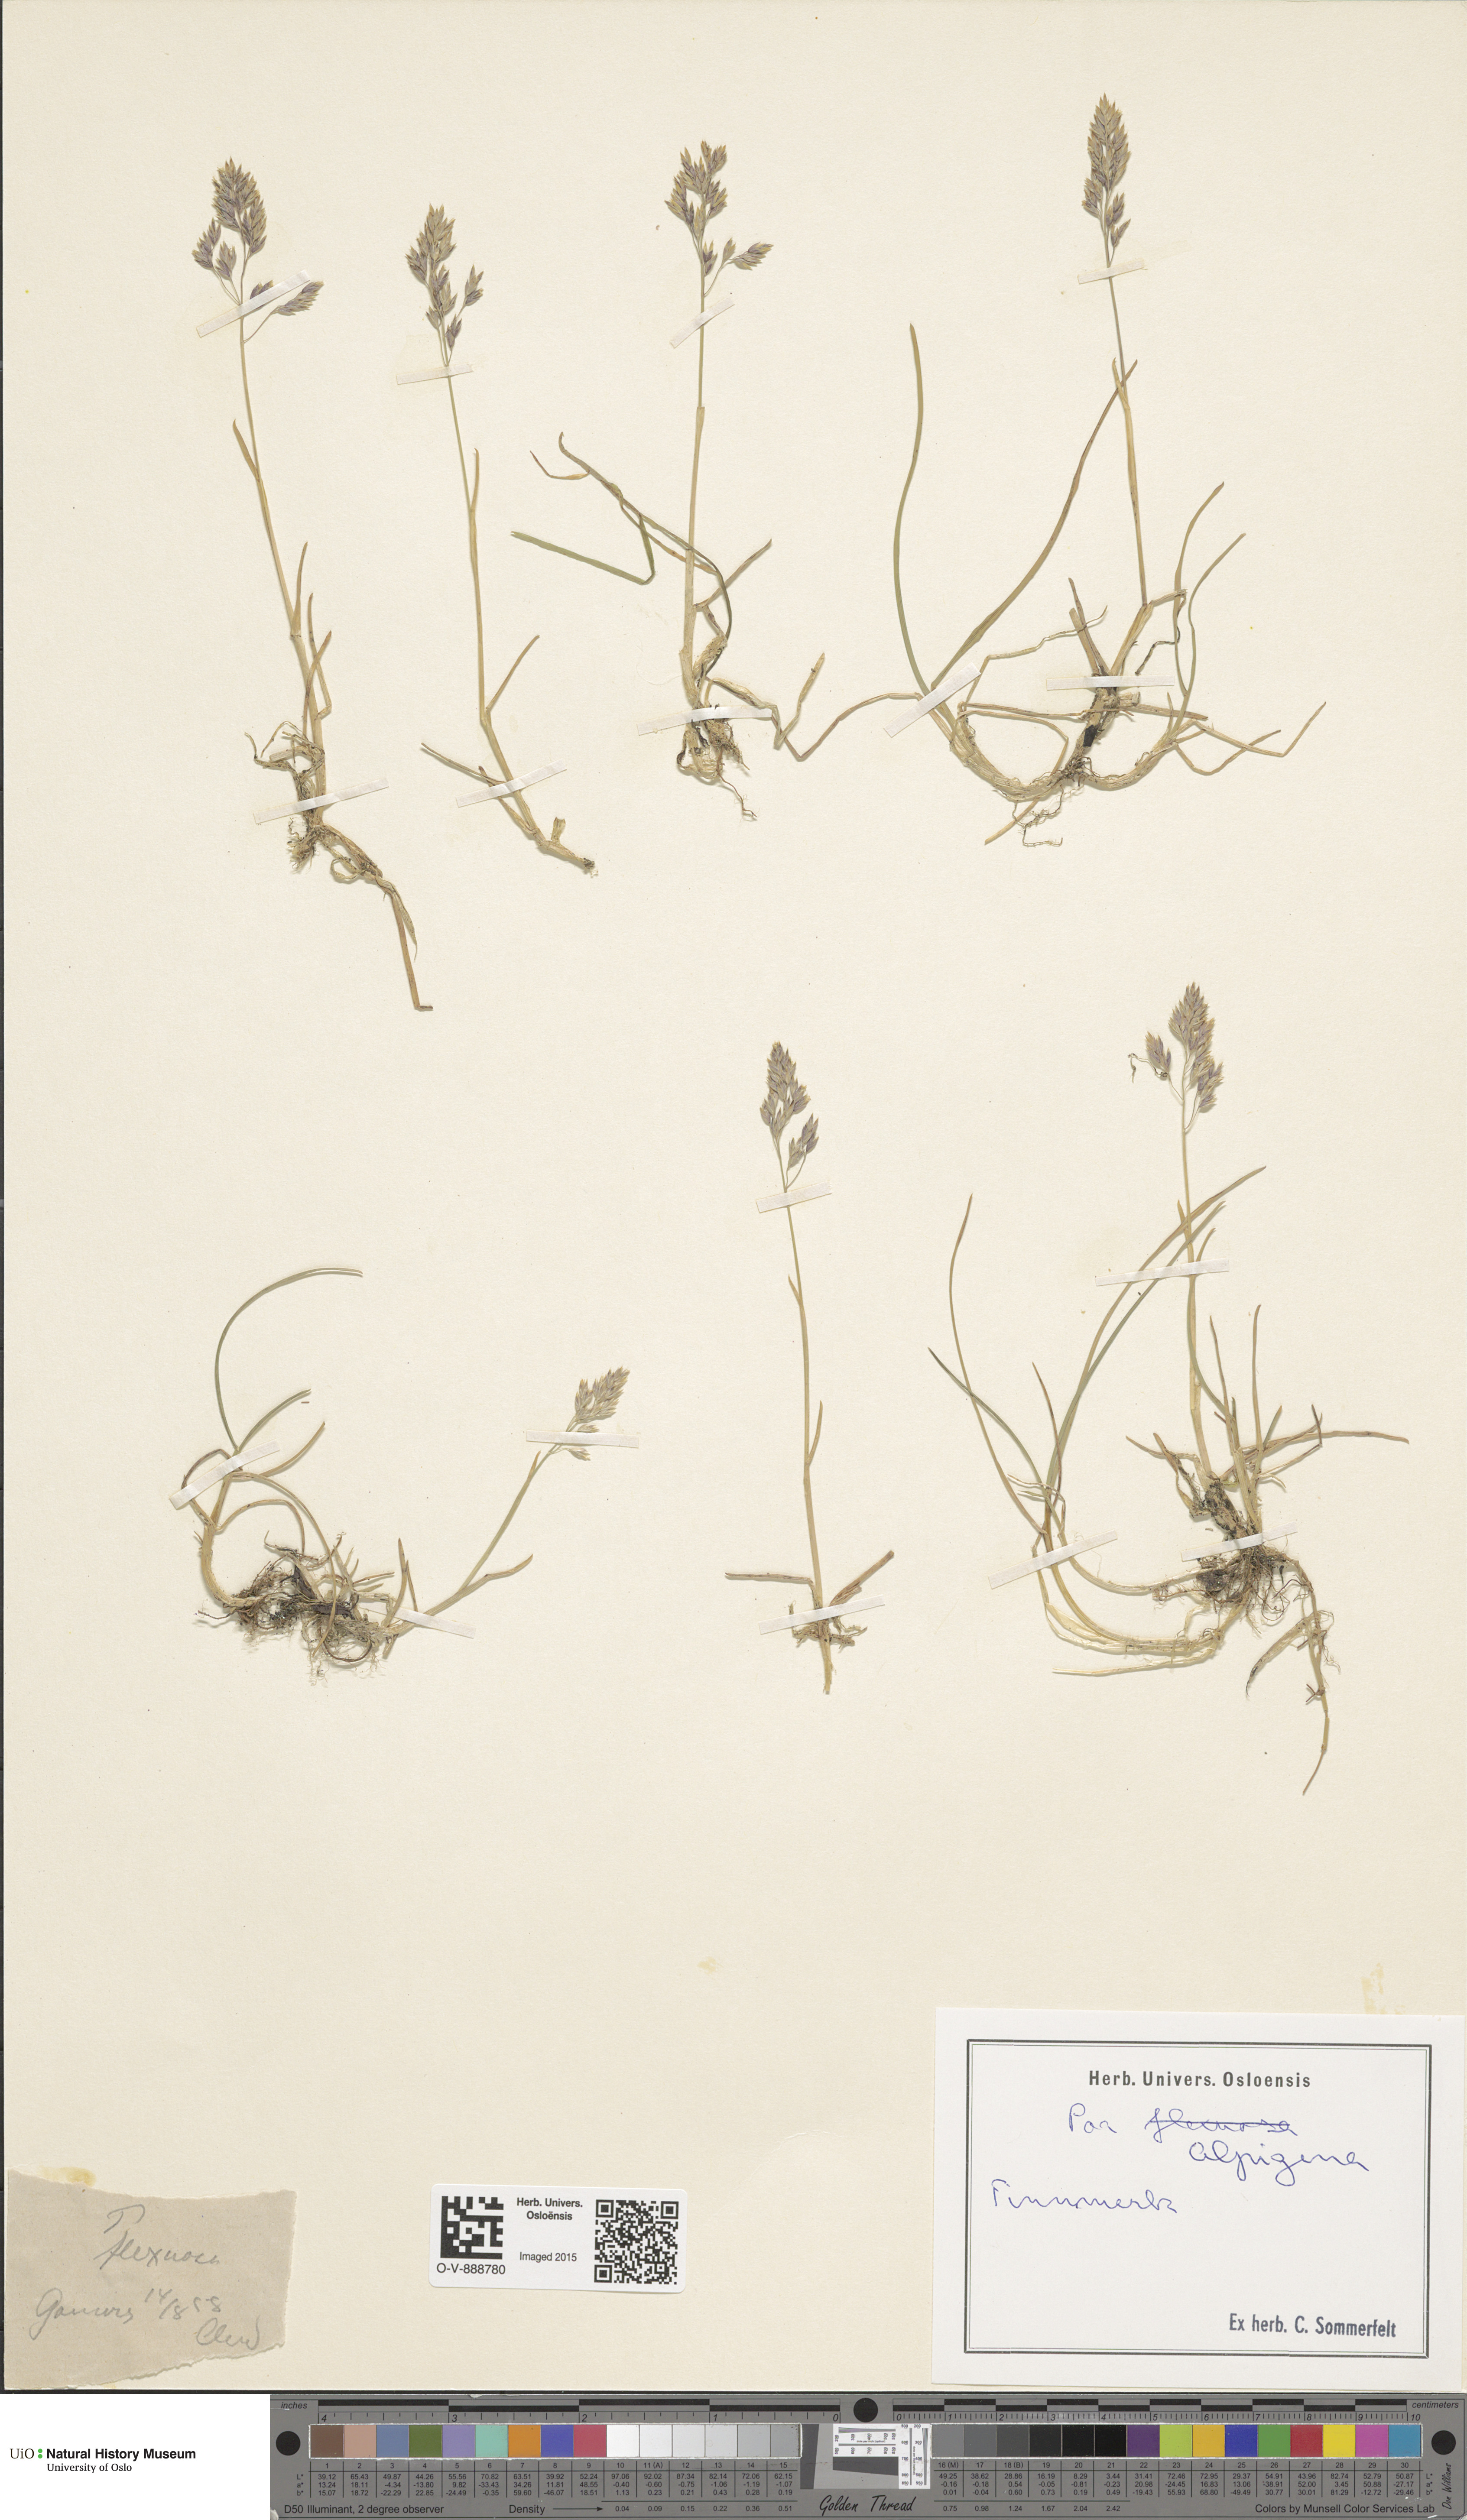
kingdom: Plantae
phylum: Tracheophyta
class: Liliopsida
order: Poales
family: Poaceae
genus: Poa
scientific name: Poa alpigena
